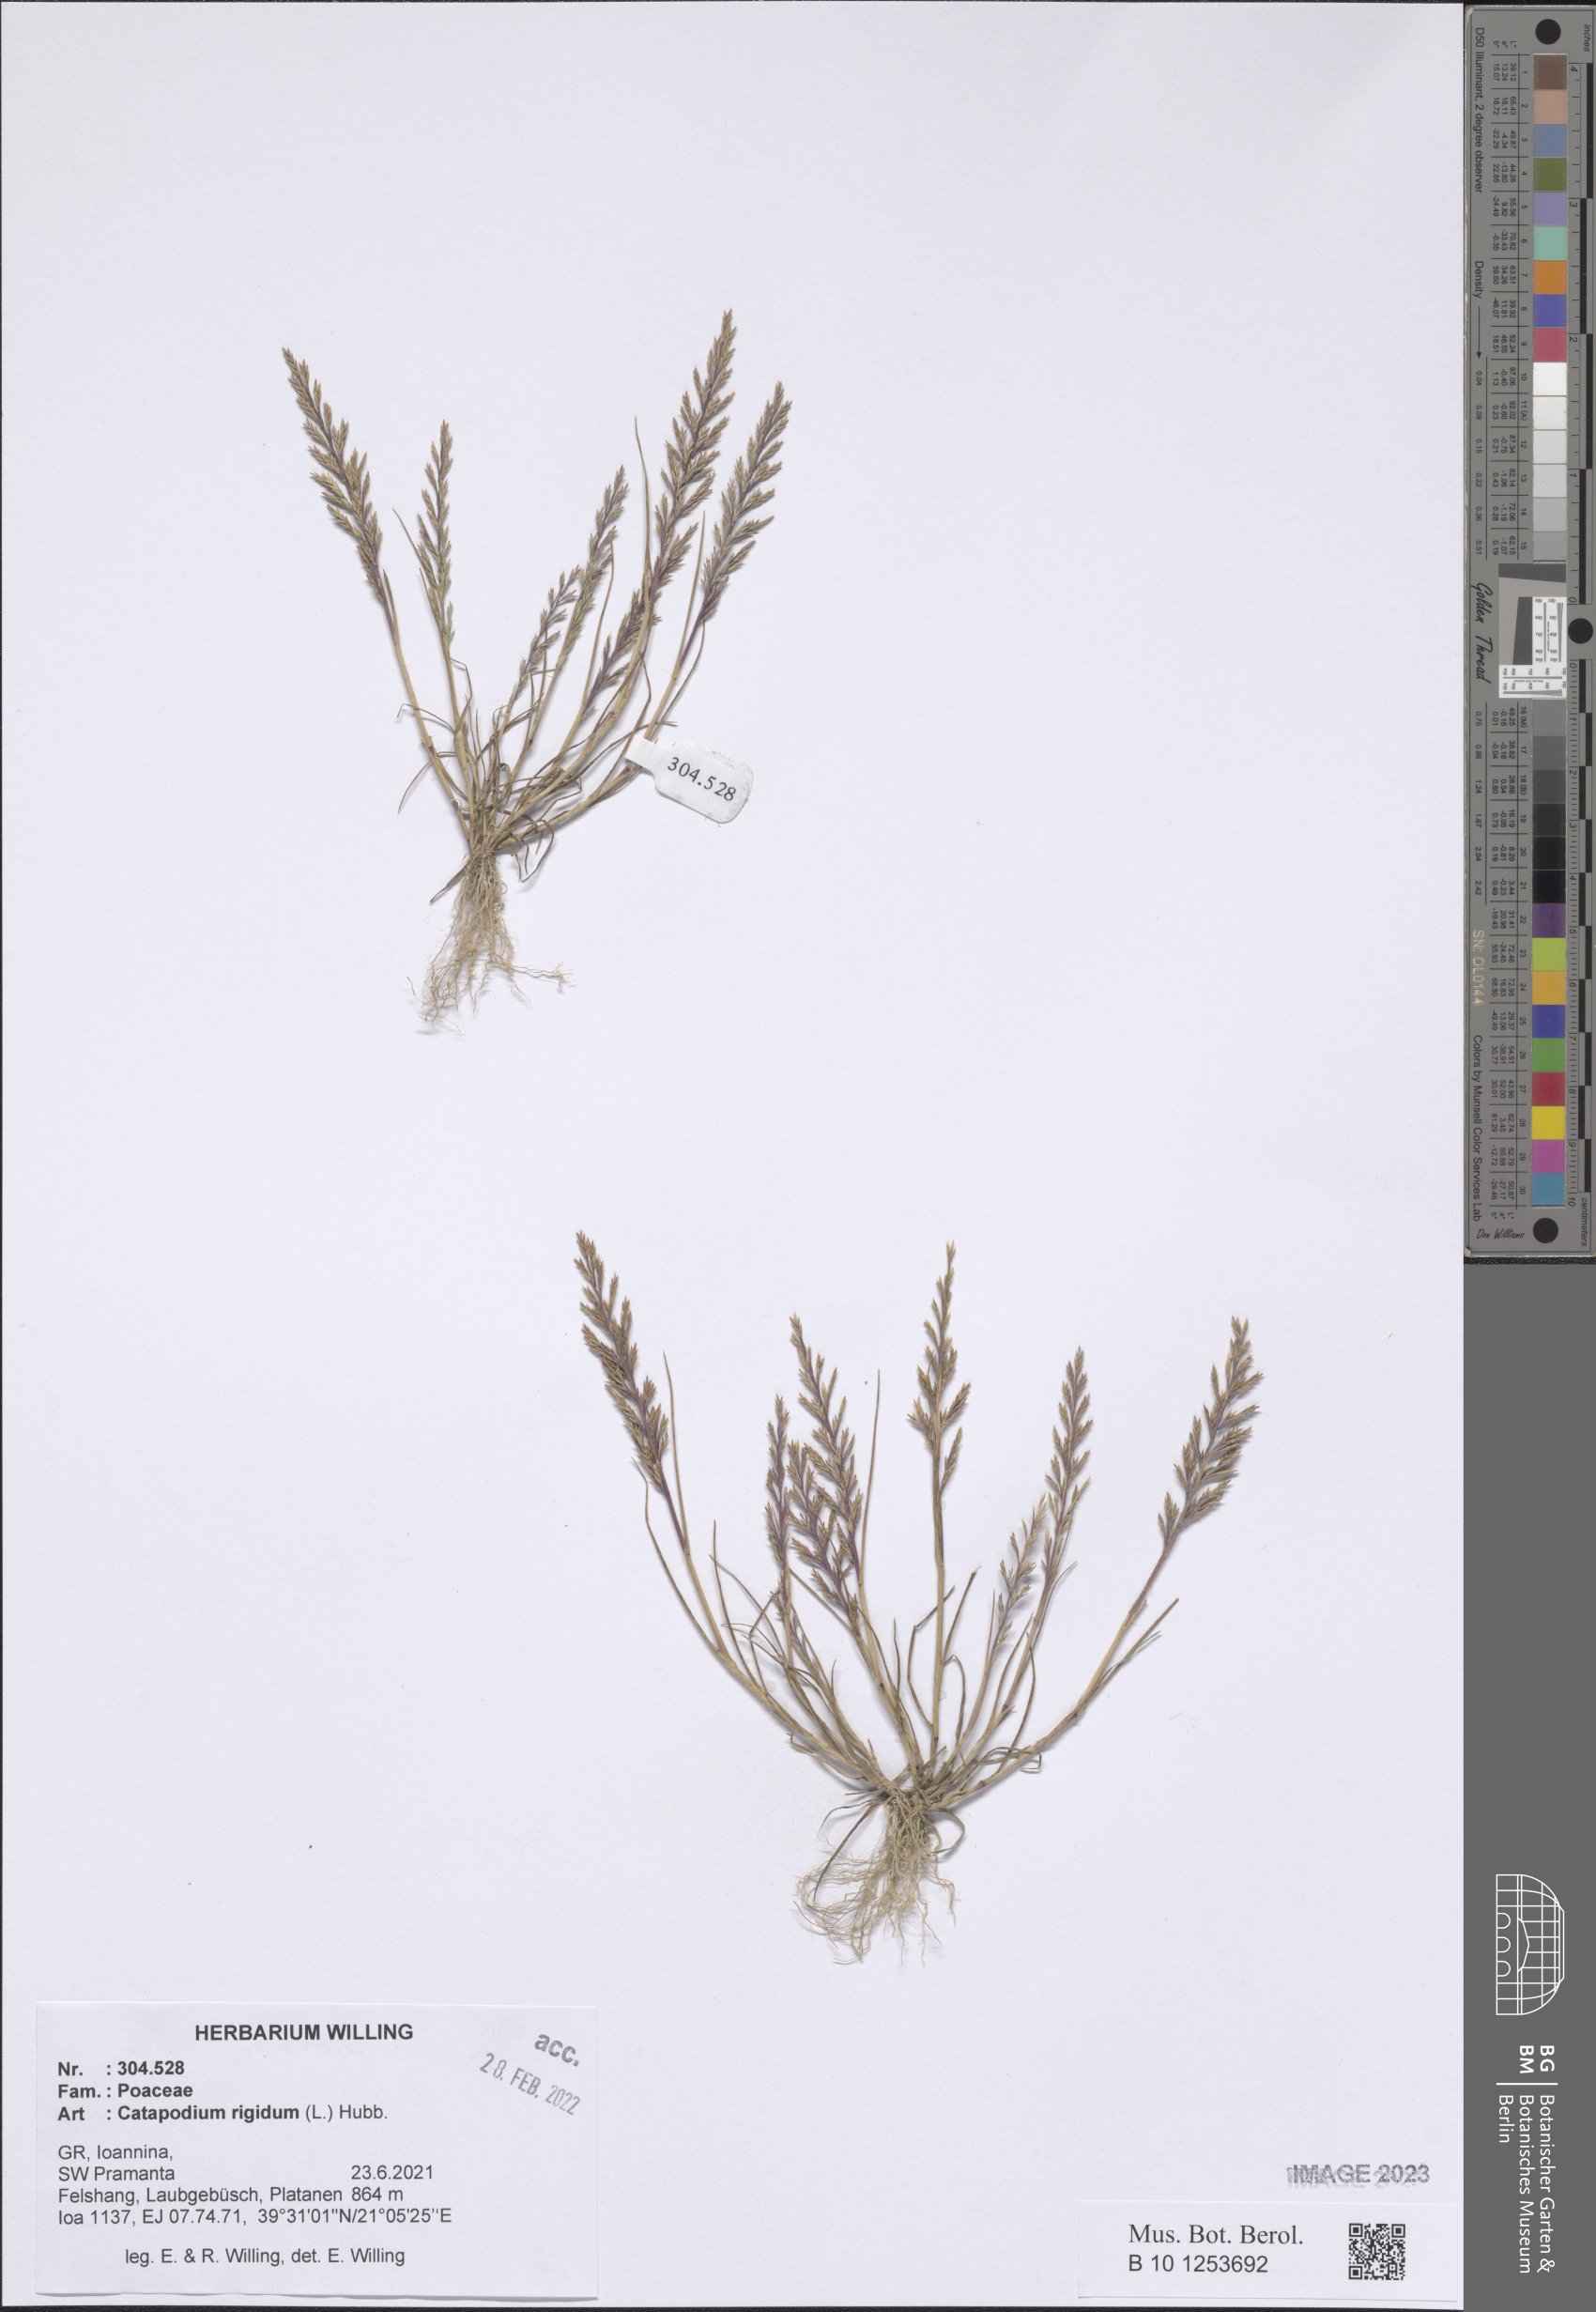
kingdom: Plantae
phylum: Tracheophyta
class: Liliopsida
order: Poales
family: Poaceae
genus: Catapodium
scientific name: Catapodium rigidum
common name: Fern-grass
